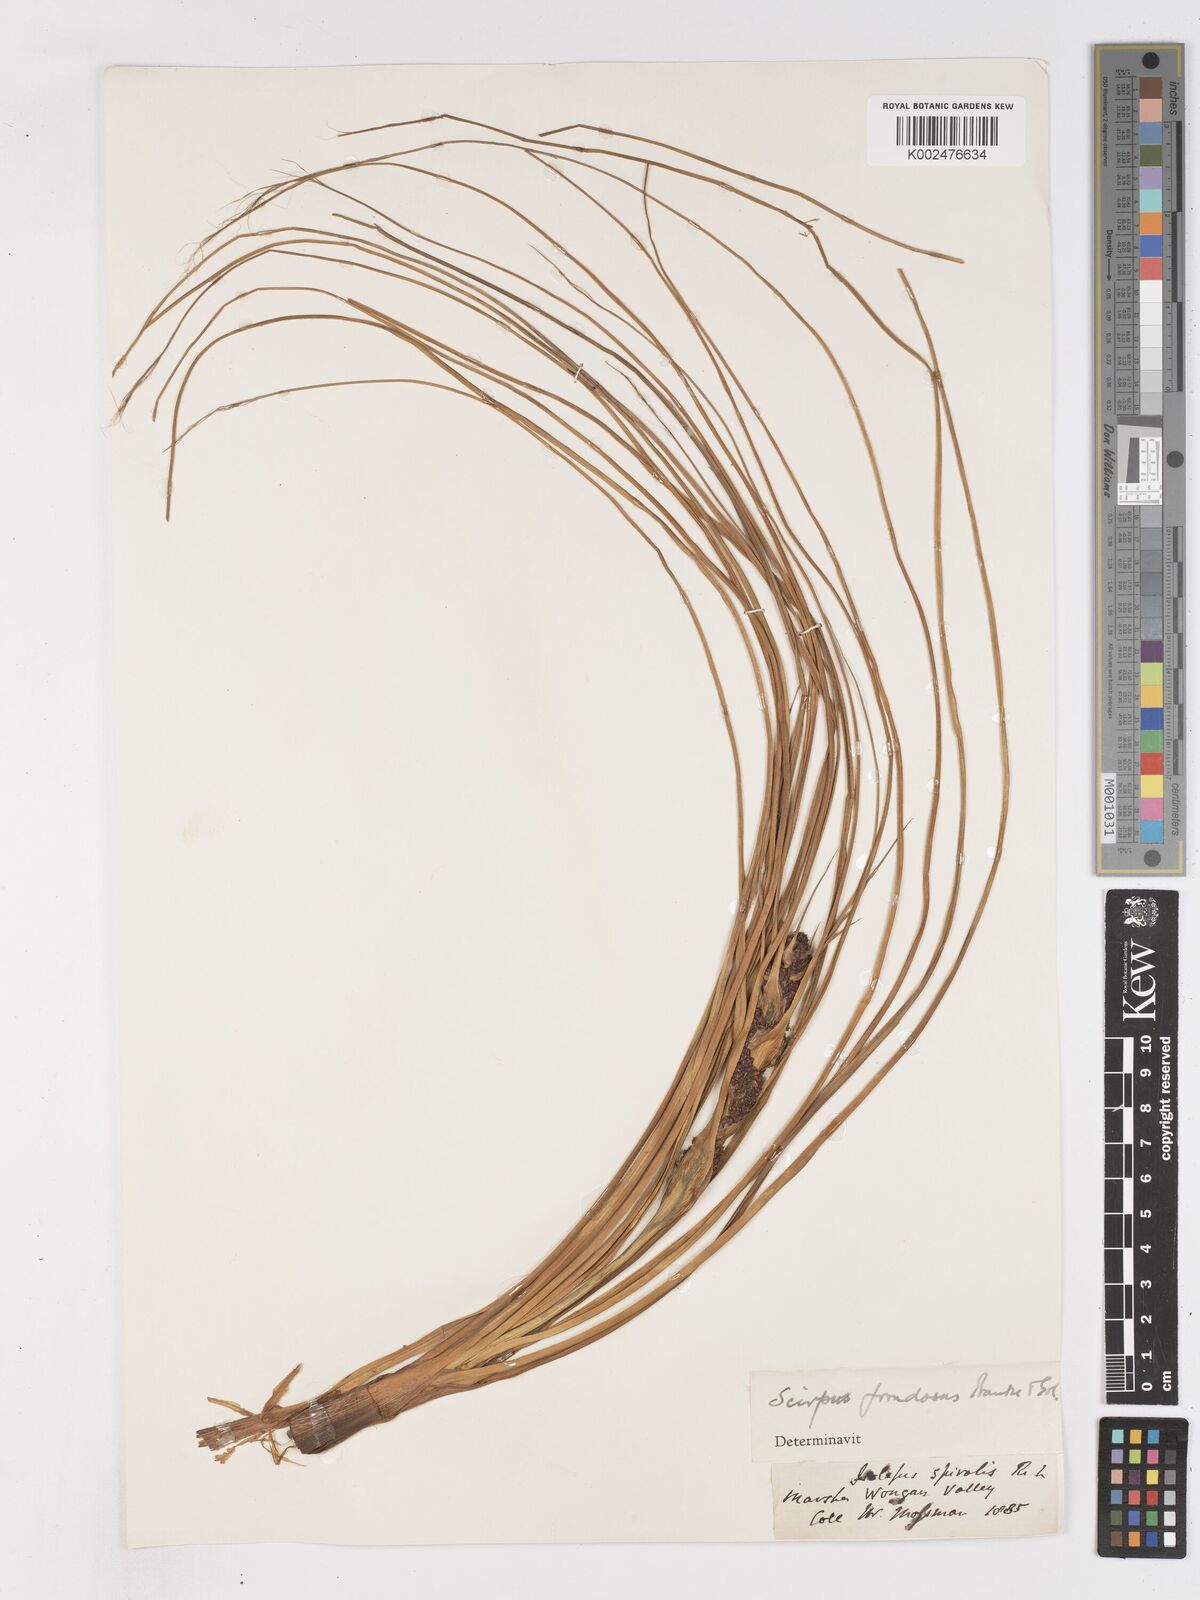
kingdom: Plantae
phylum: Tracheophyta
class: Liliopsida
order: Poales
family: Cyperaceae
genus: Ficinia
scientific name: Ficinia
